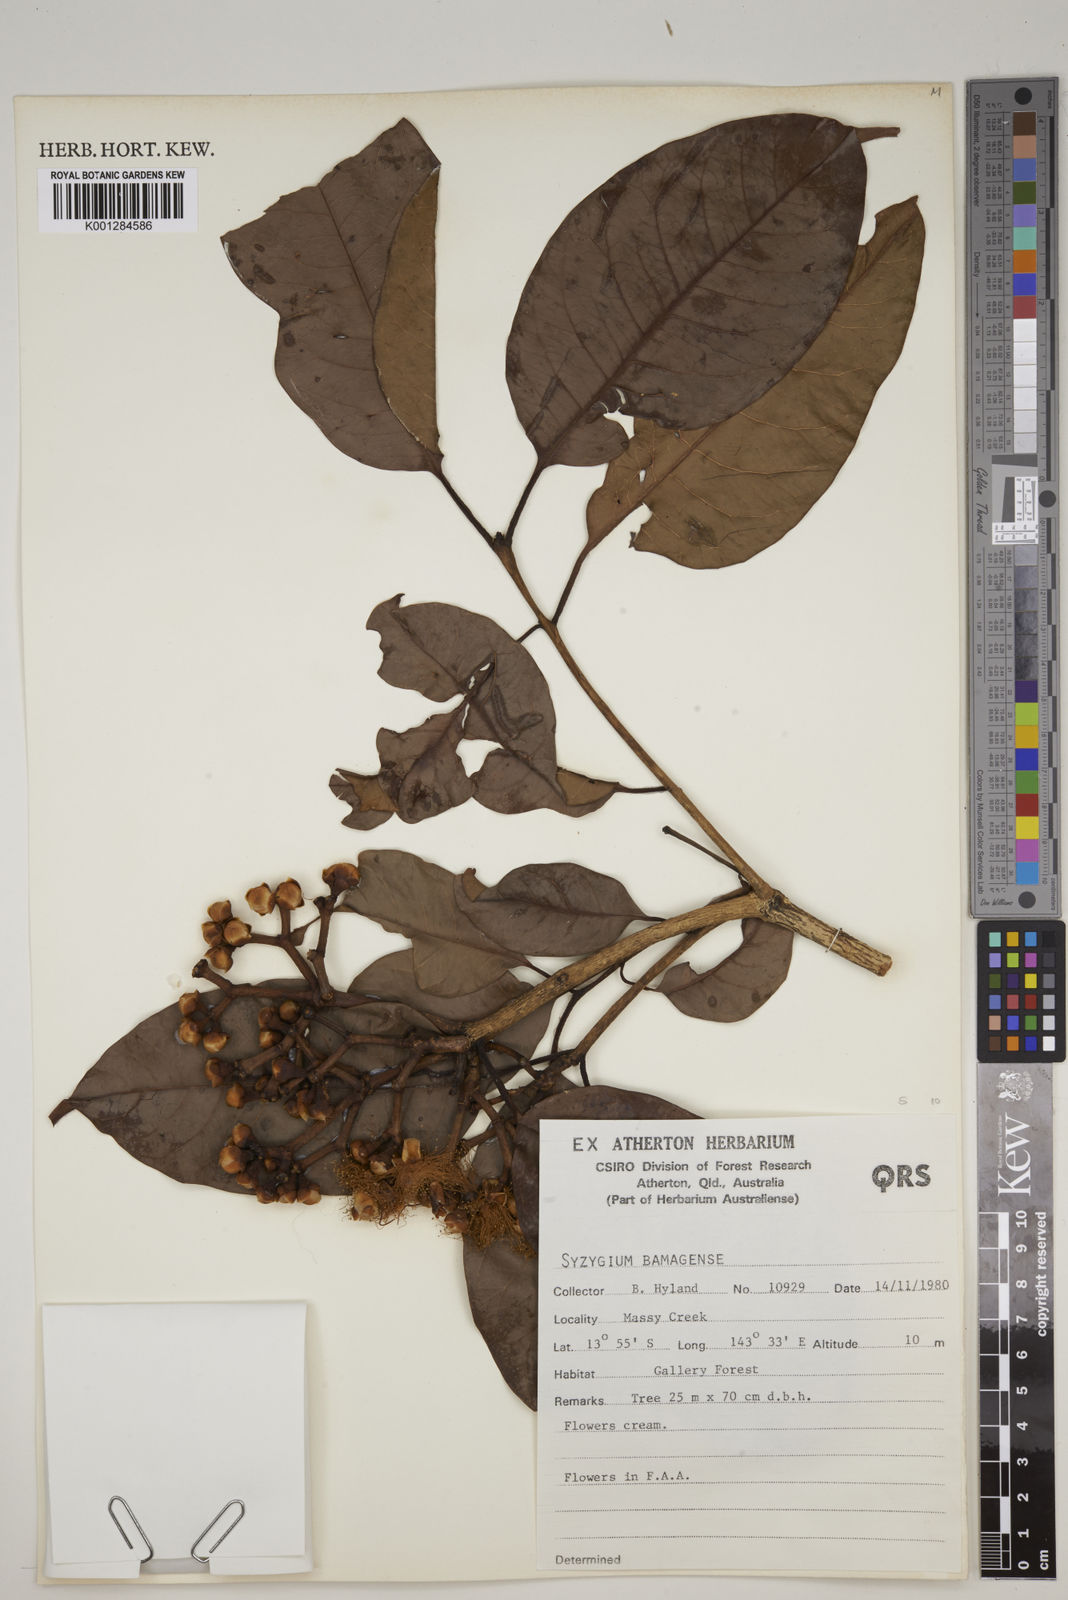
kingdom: Plantae
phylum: Tracheophyta
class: Magnoliopsida
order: Myrtales
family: Myrtaceae
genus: Syzygium
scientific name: Syzygium bamagense
